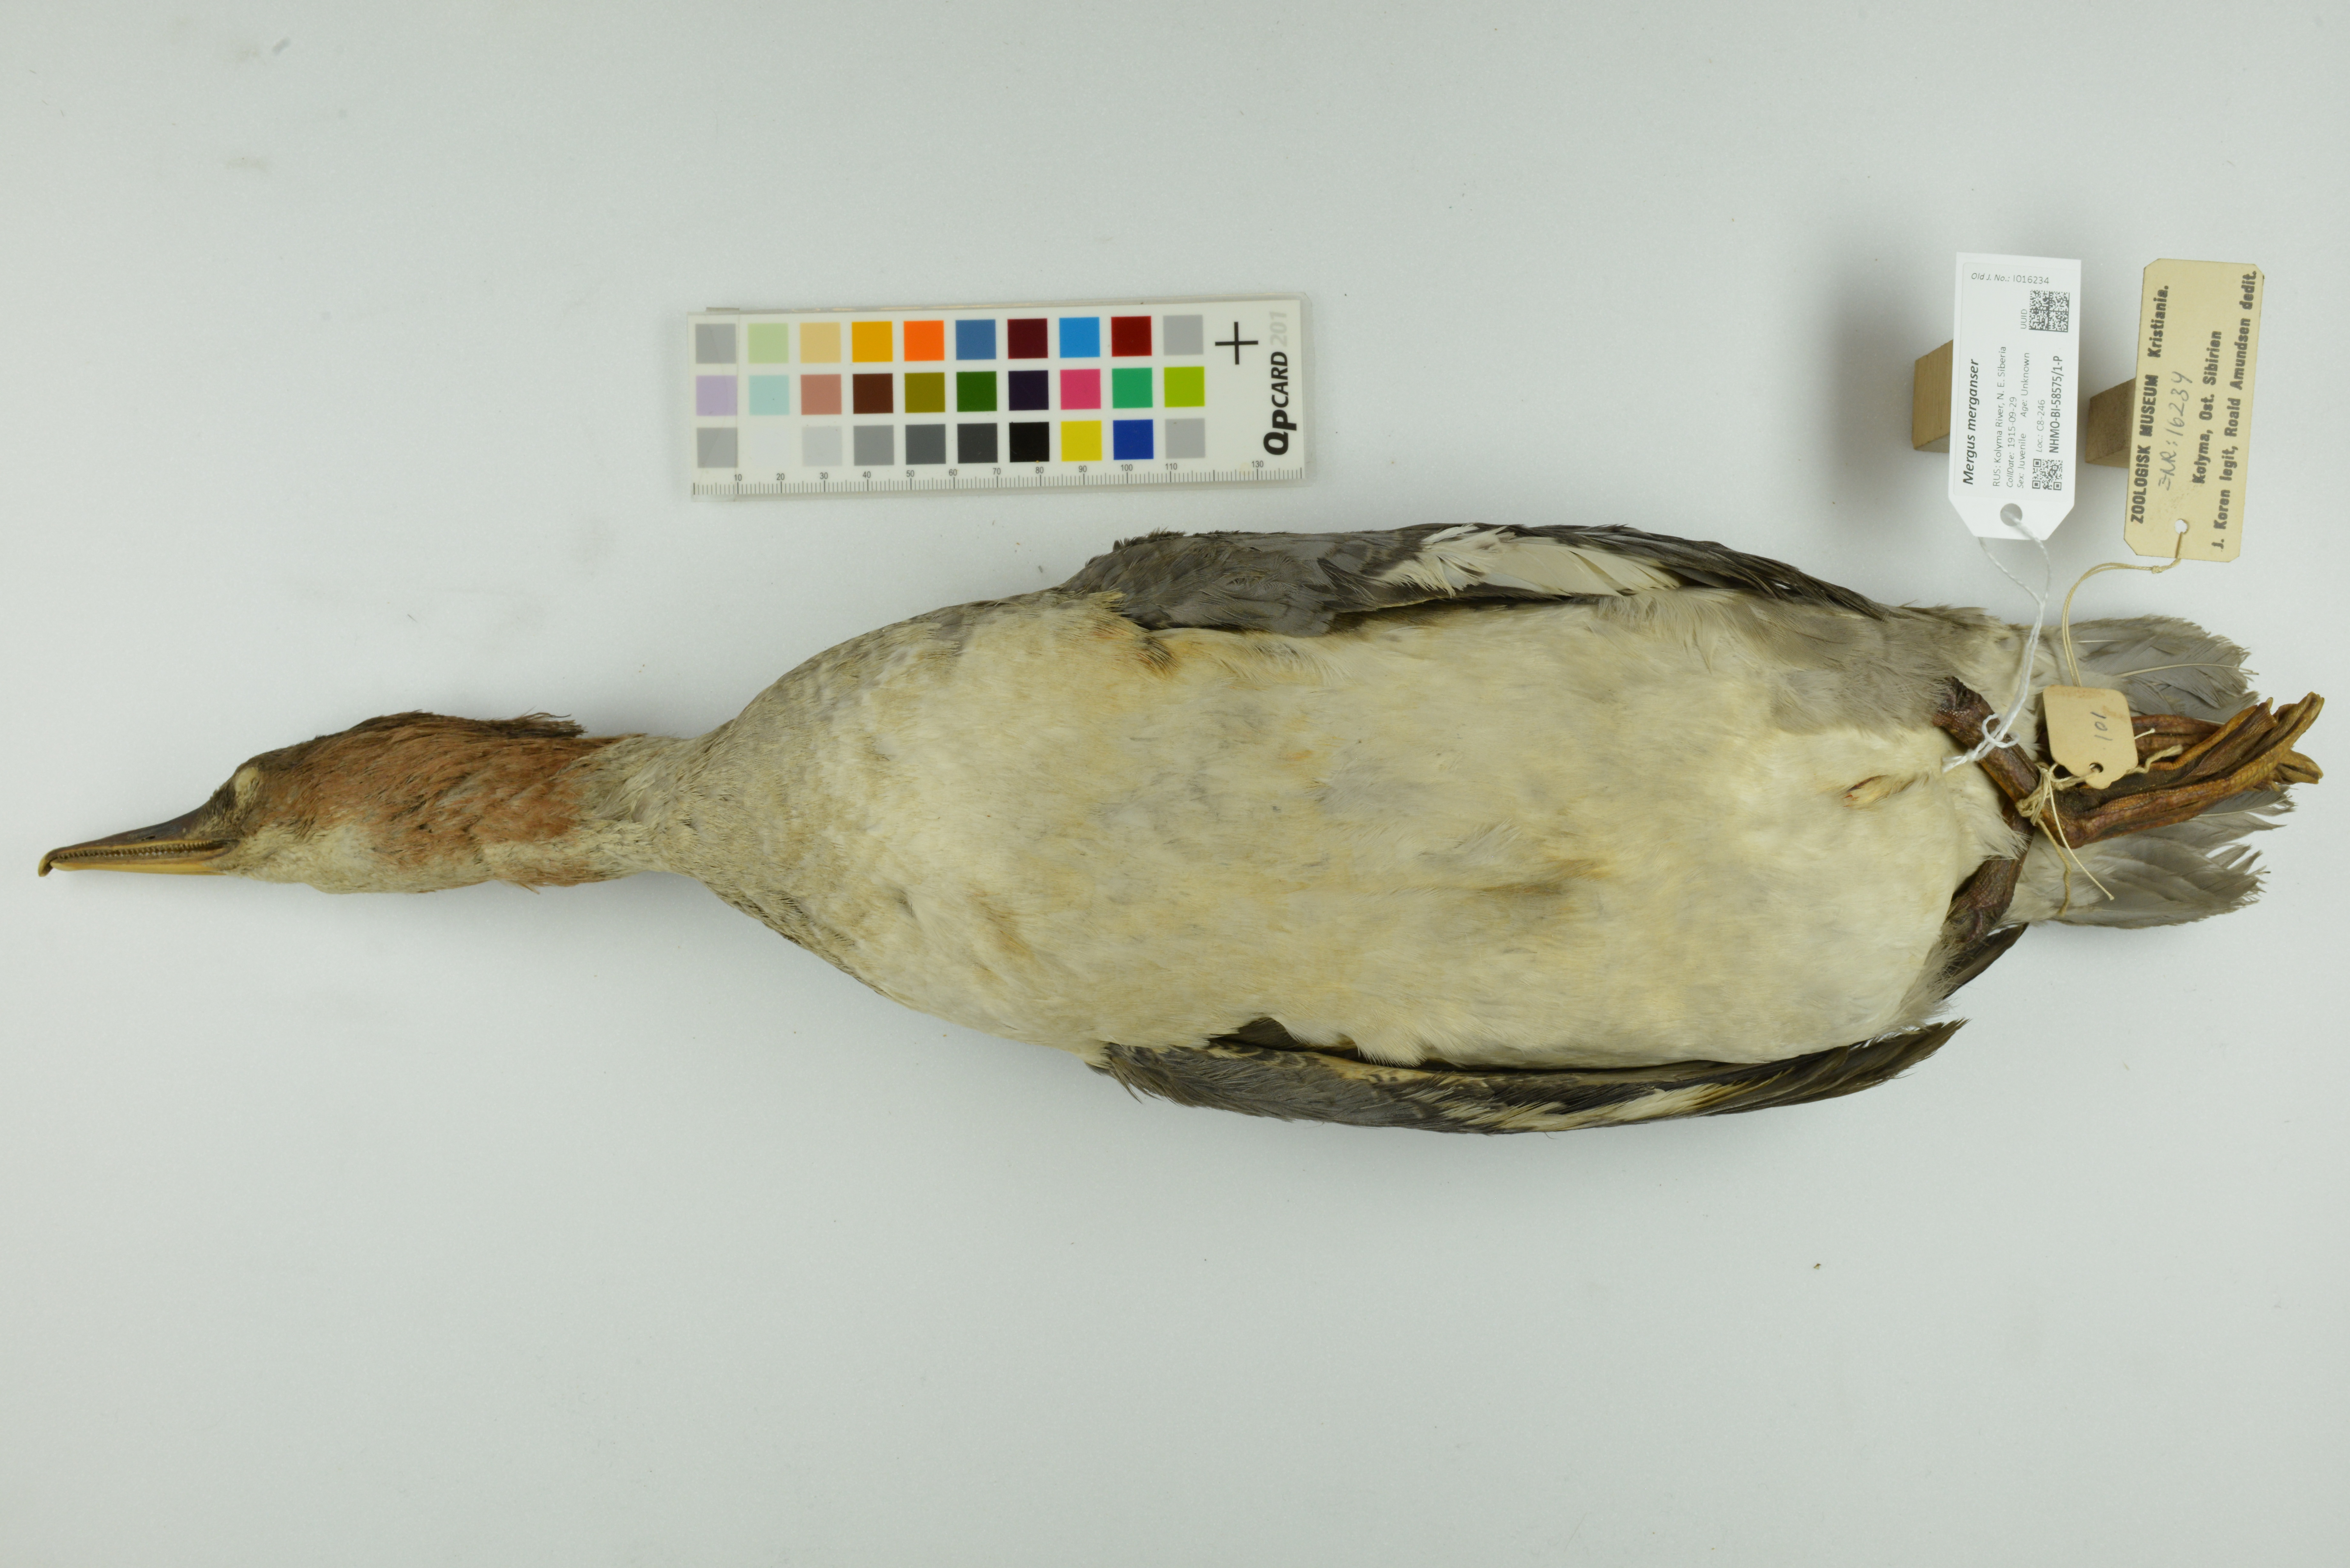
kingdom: Animalia
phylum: Chordata
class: Aves
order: Anseriformes
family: Anatidae
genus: Mergus
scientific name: Mergus merganser
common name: Common merganser
